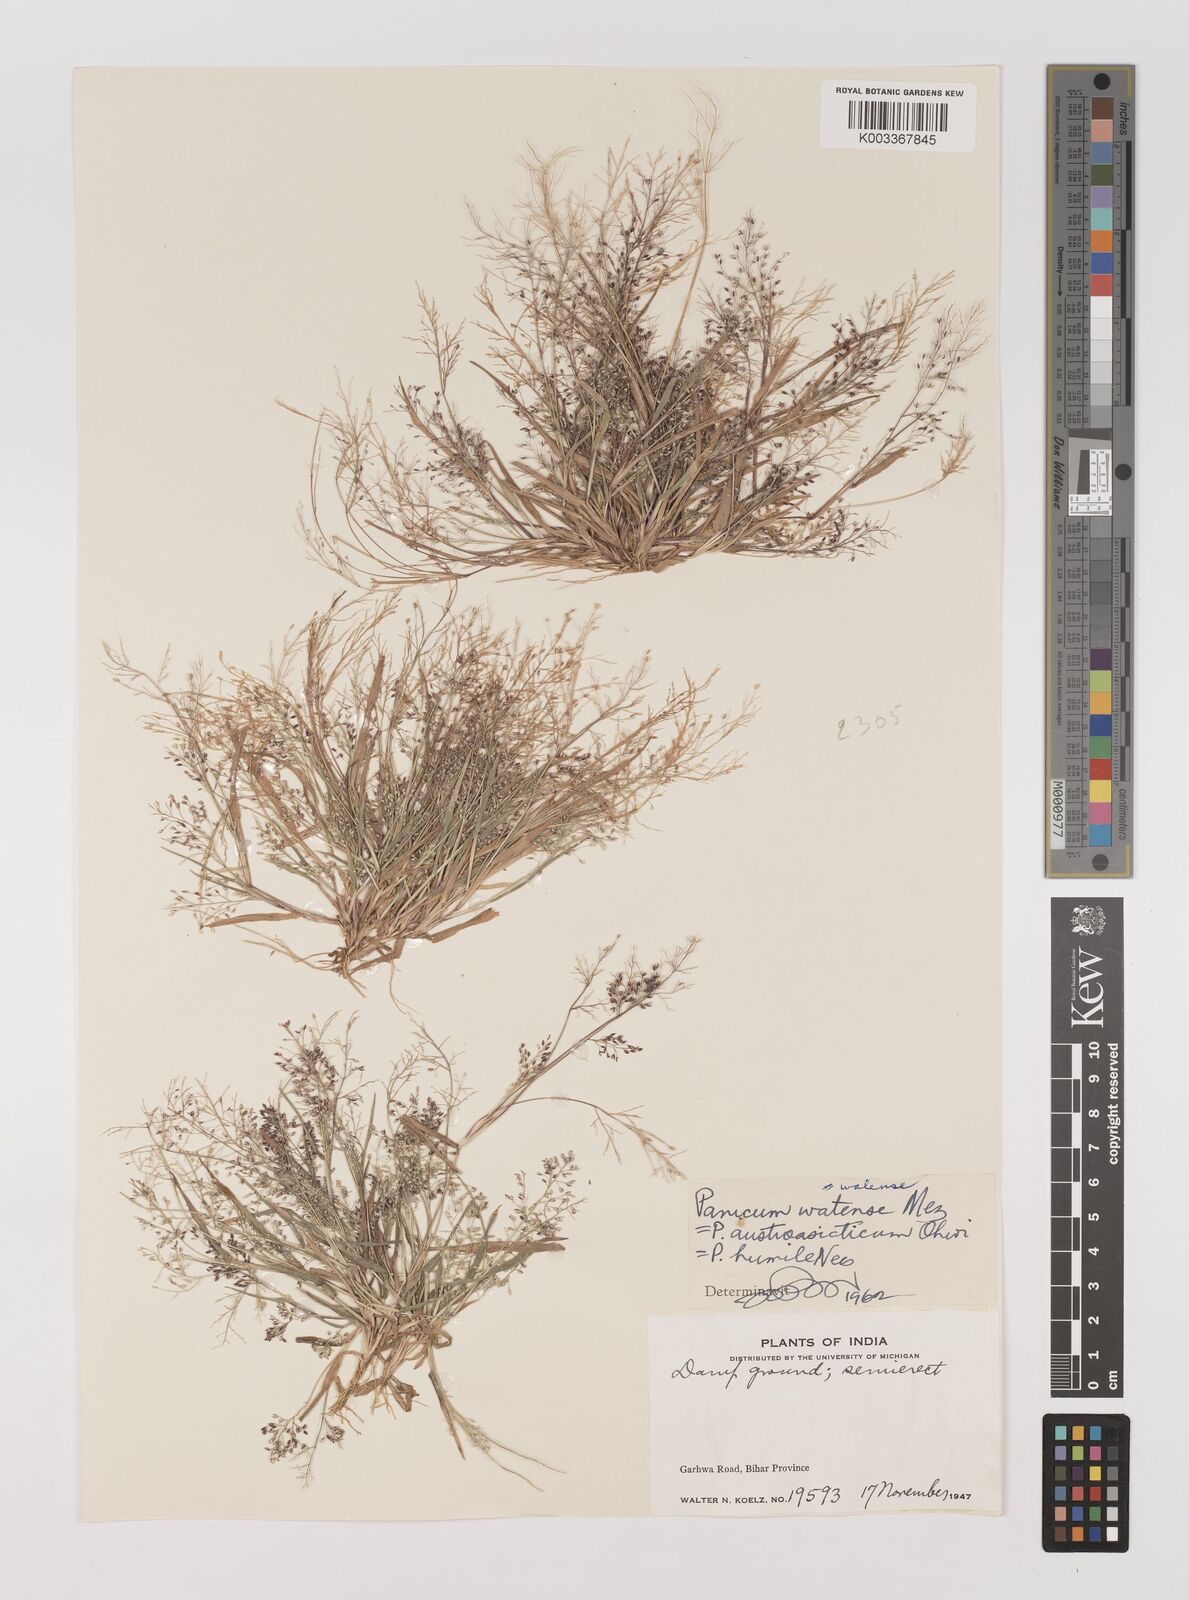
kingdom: Plantae
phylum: Tracheophyta
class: Liliopsida
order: Poales
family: Poaceae
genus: Panicum
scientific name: Panicum humile
